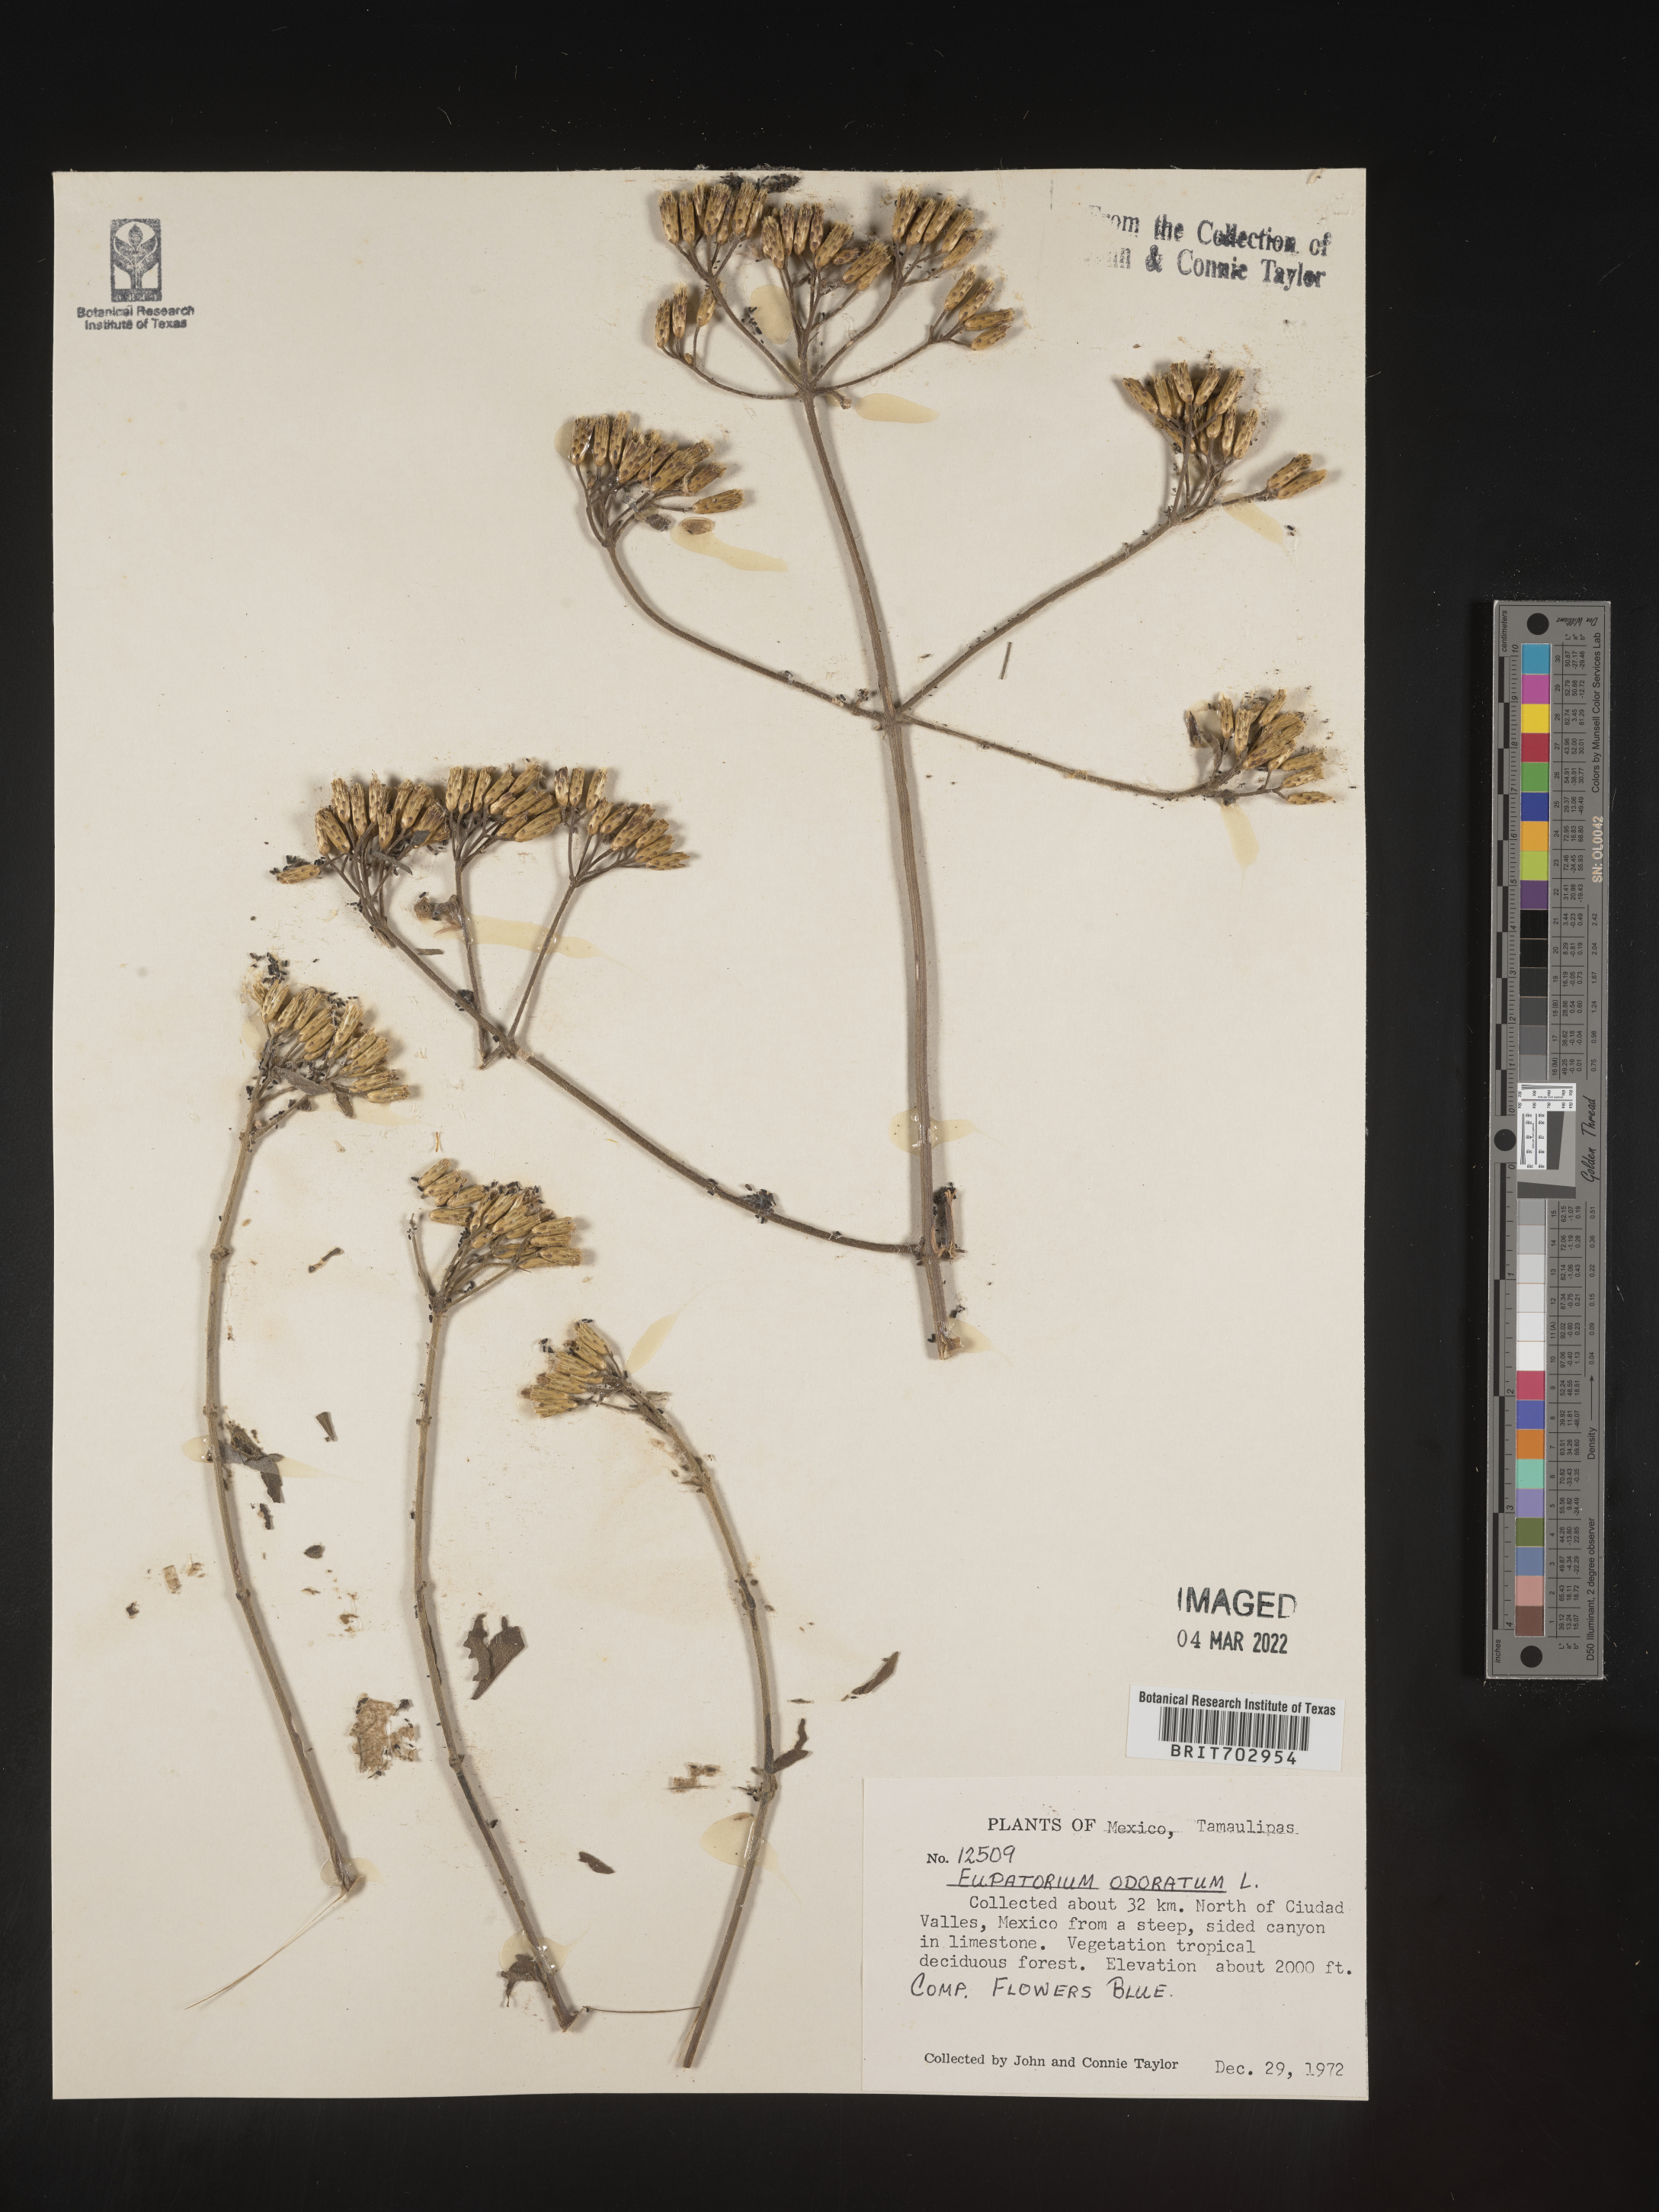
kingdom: Plantae
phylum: Tracheophyta
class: Magnoliopsida
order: Asterales
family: Asteraceae
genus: Eupatorium
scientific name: Eupatorium
